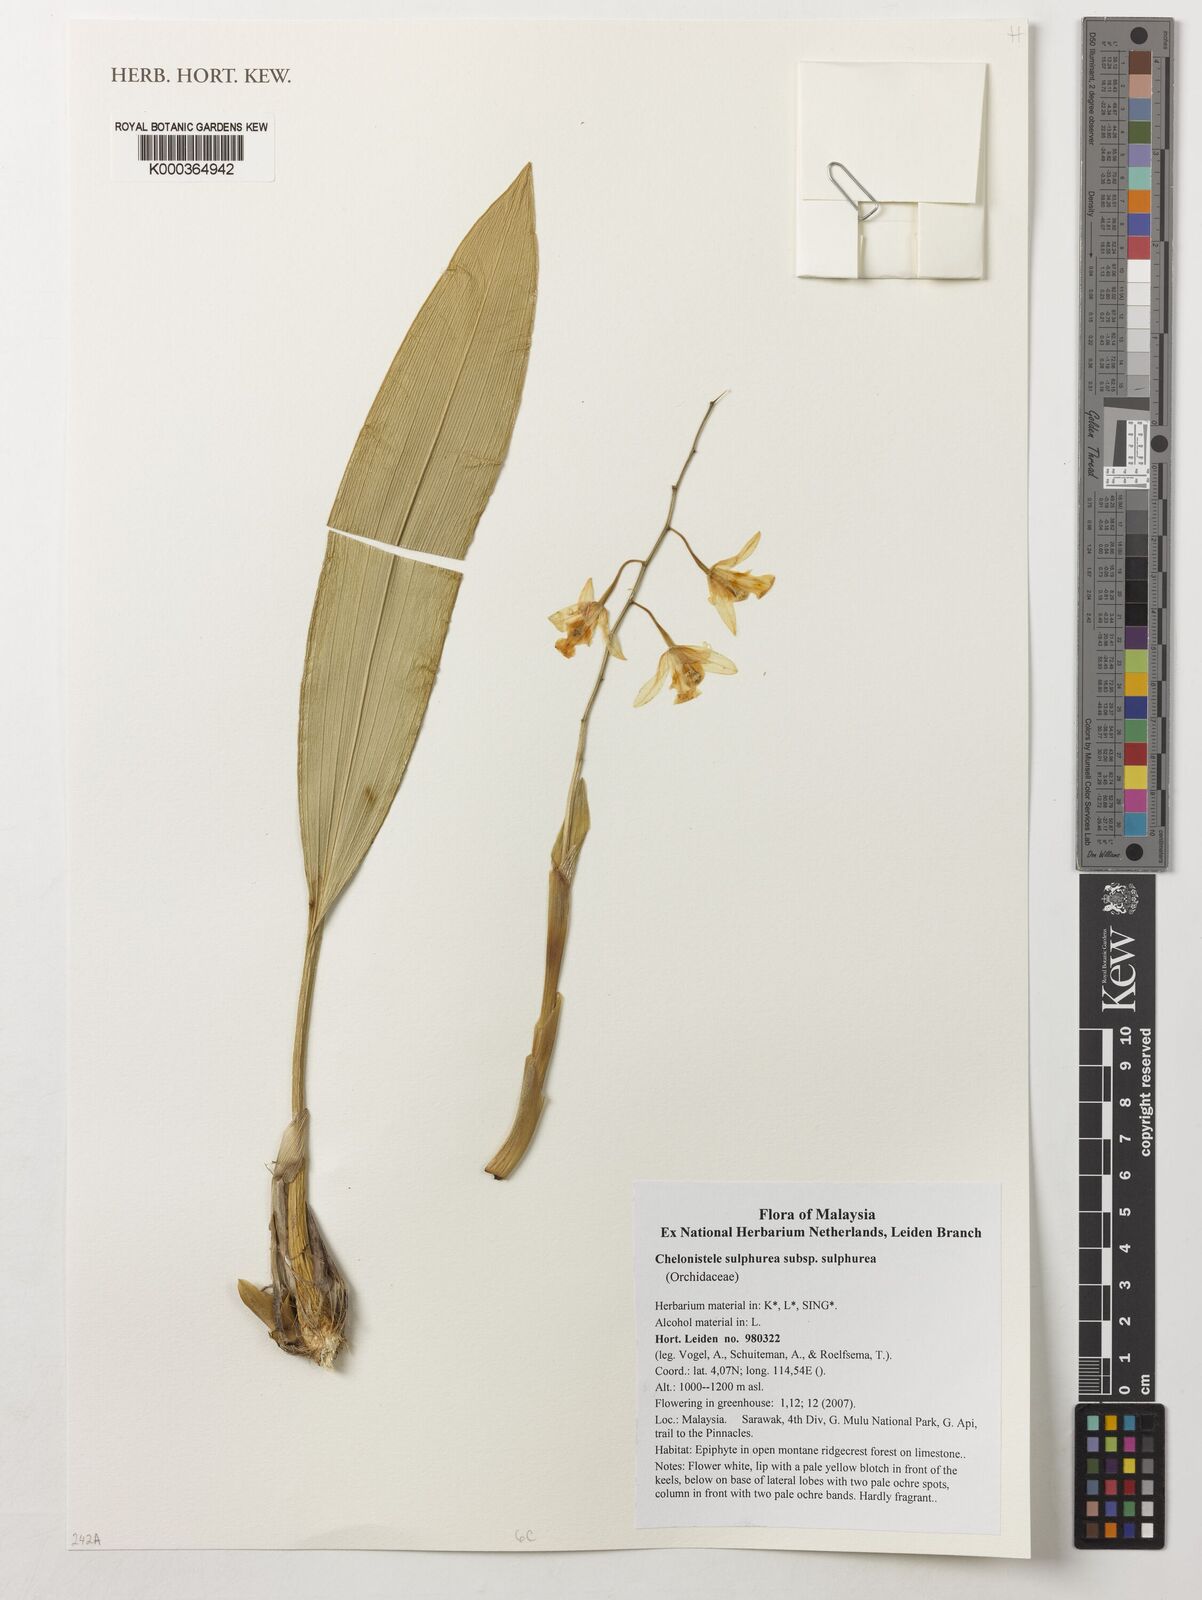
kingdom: Plantae
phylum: Tracheophyta
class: Liliopsida
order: Asparagales
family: Orchidaceae
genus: Coelogyne
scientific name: Coelogyne sulphurea
